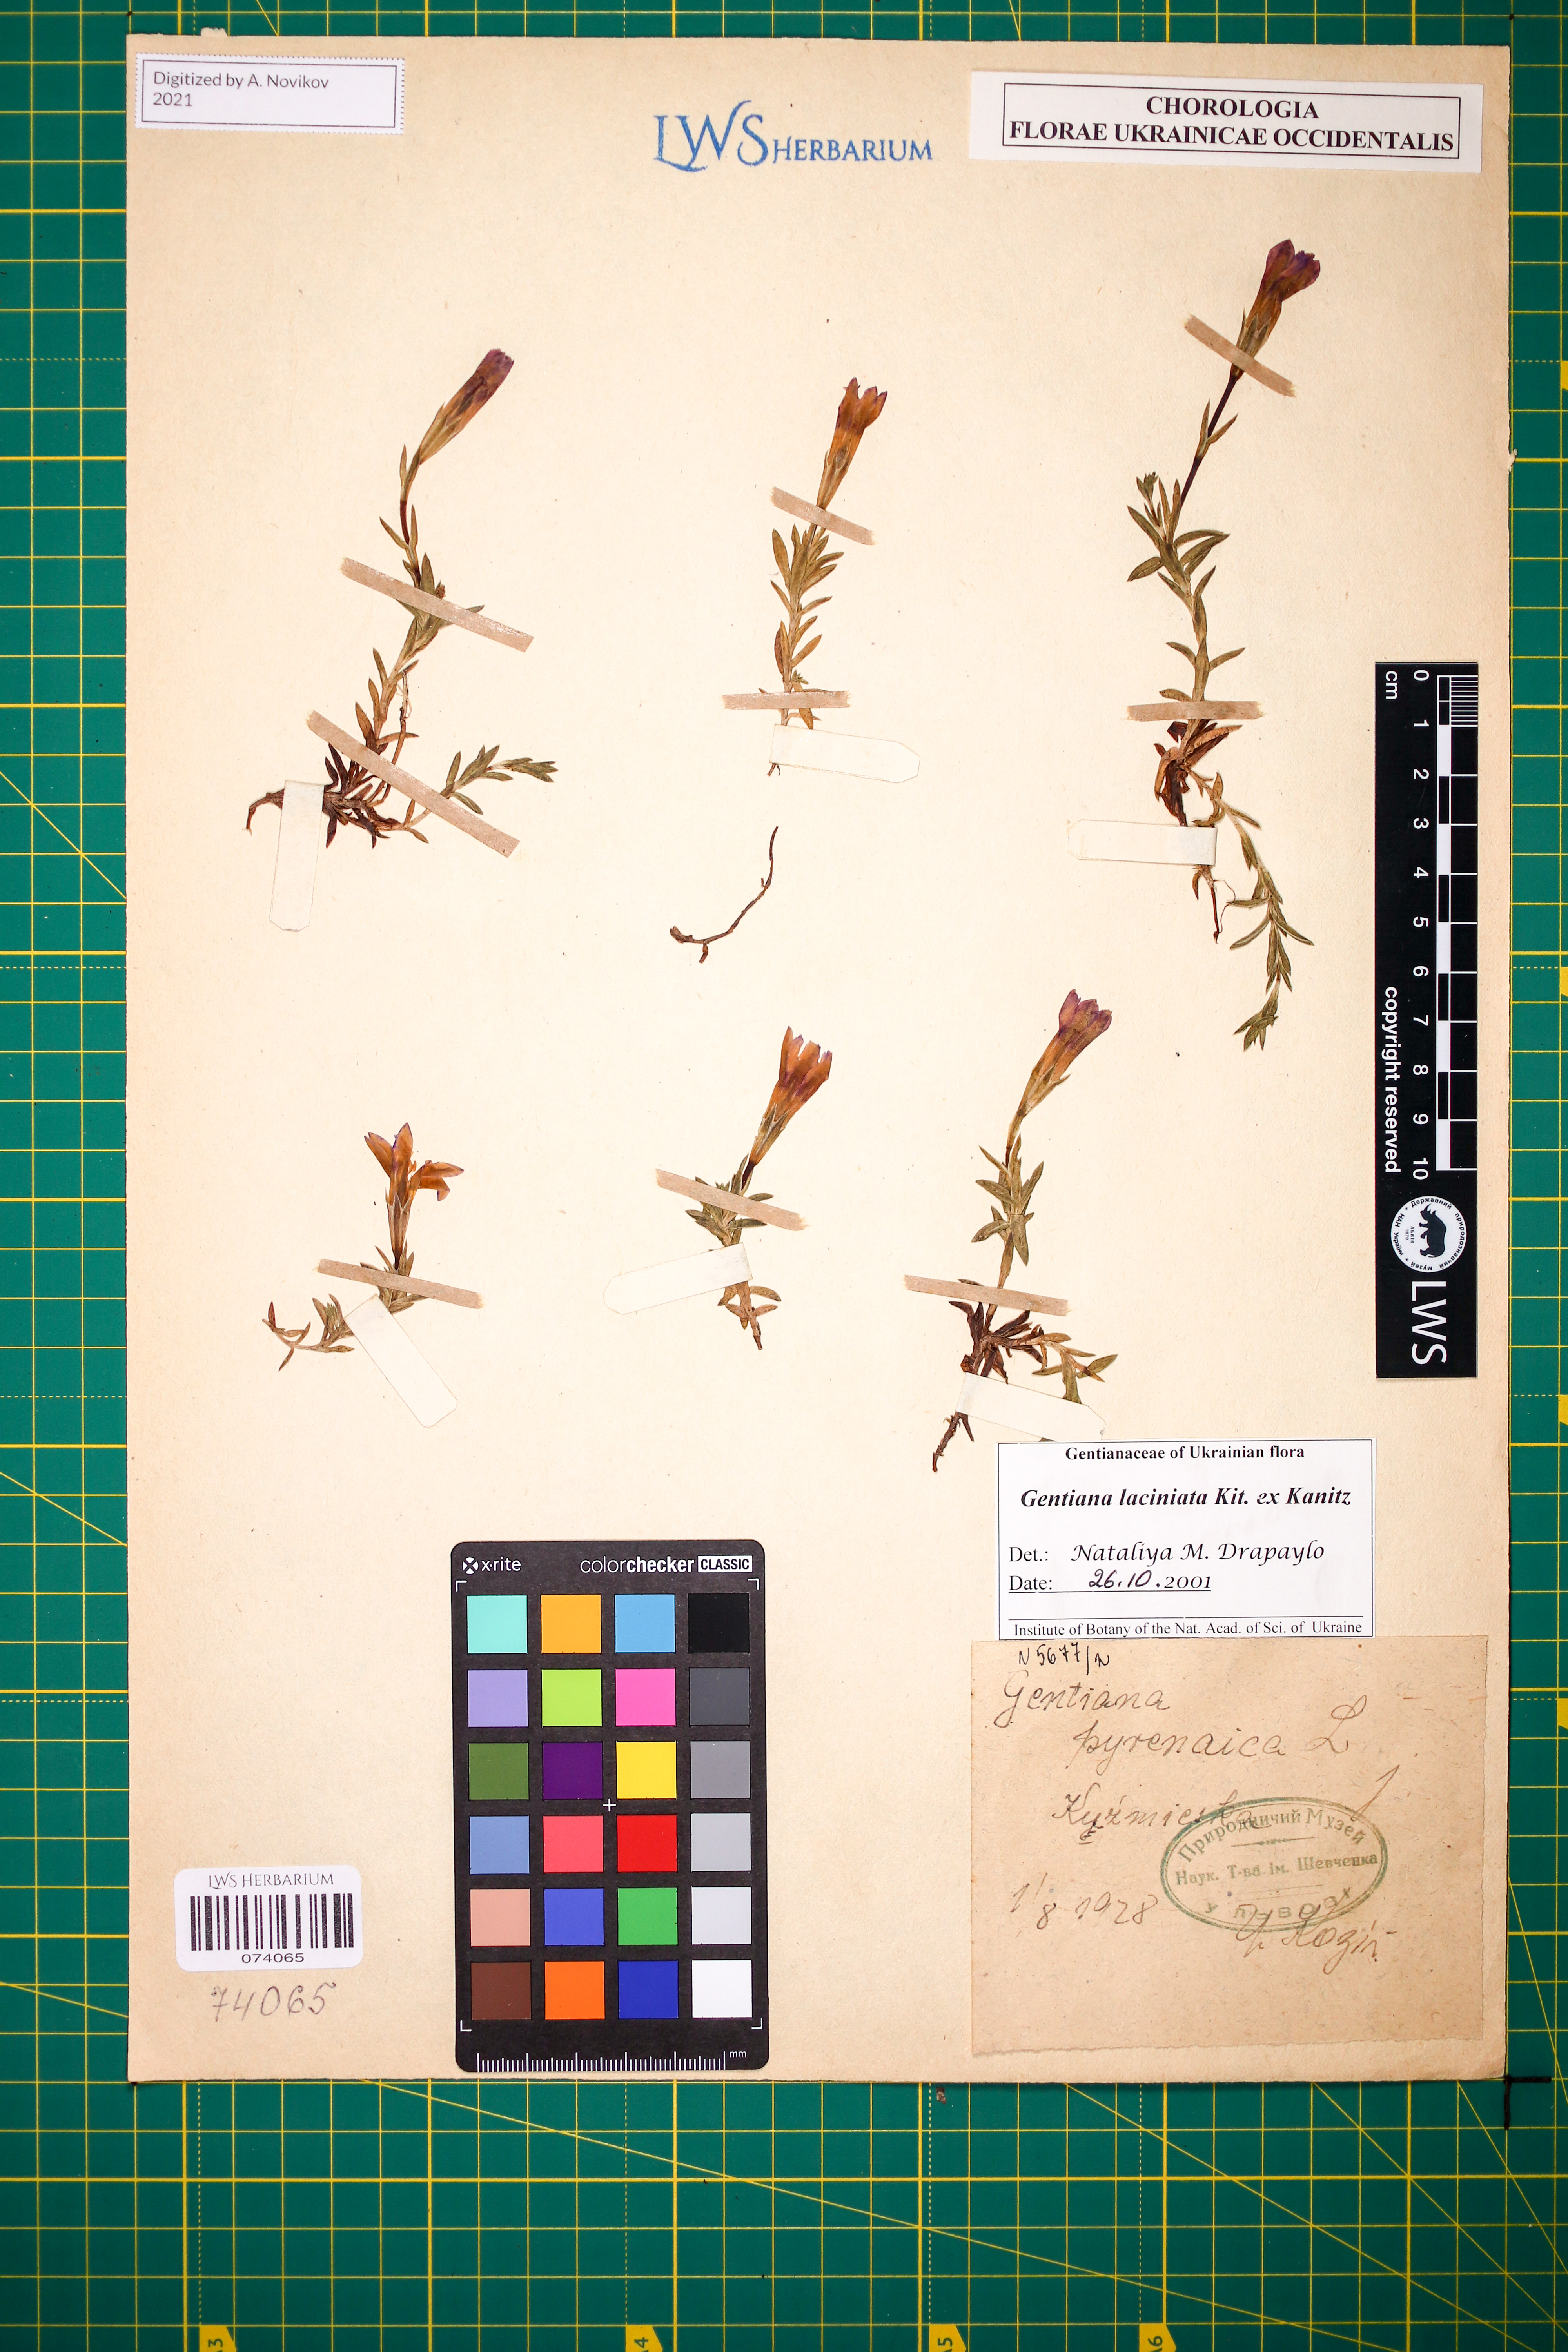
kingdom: Plantae
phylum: Tracheophyta
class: Magnoliopsida
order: Gentianales
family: Gentianaceae
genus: Gentiana
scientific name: Gentiana laciniata
